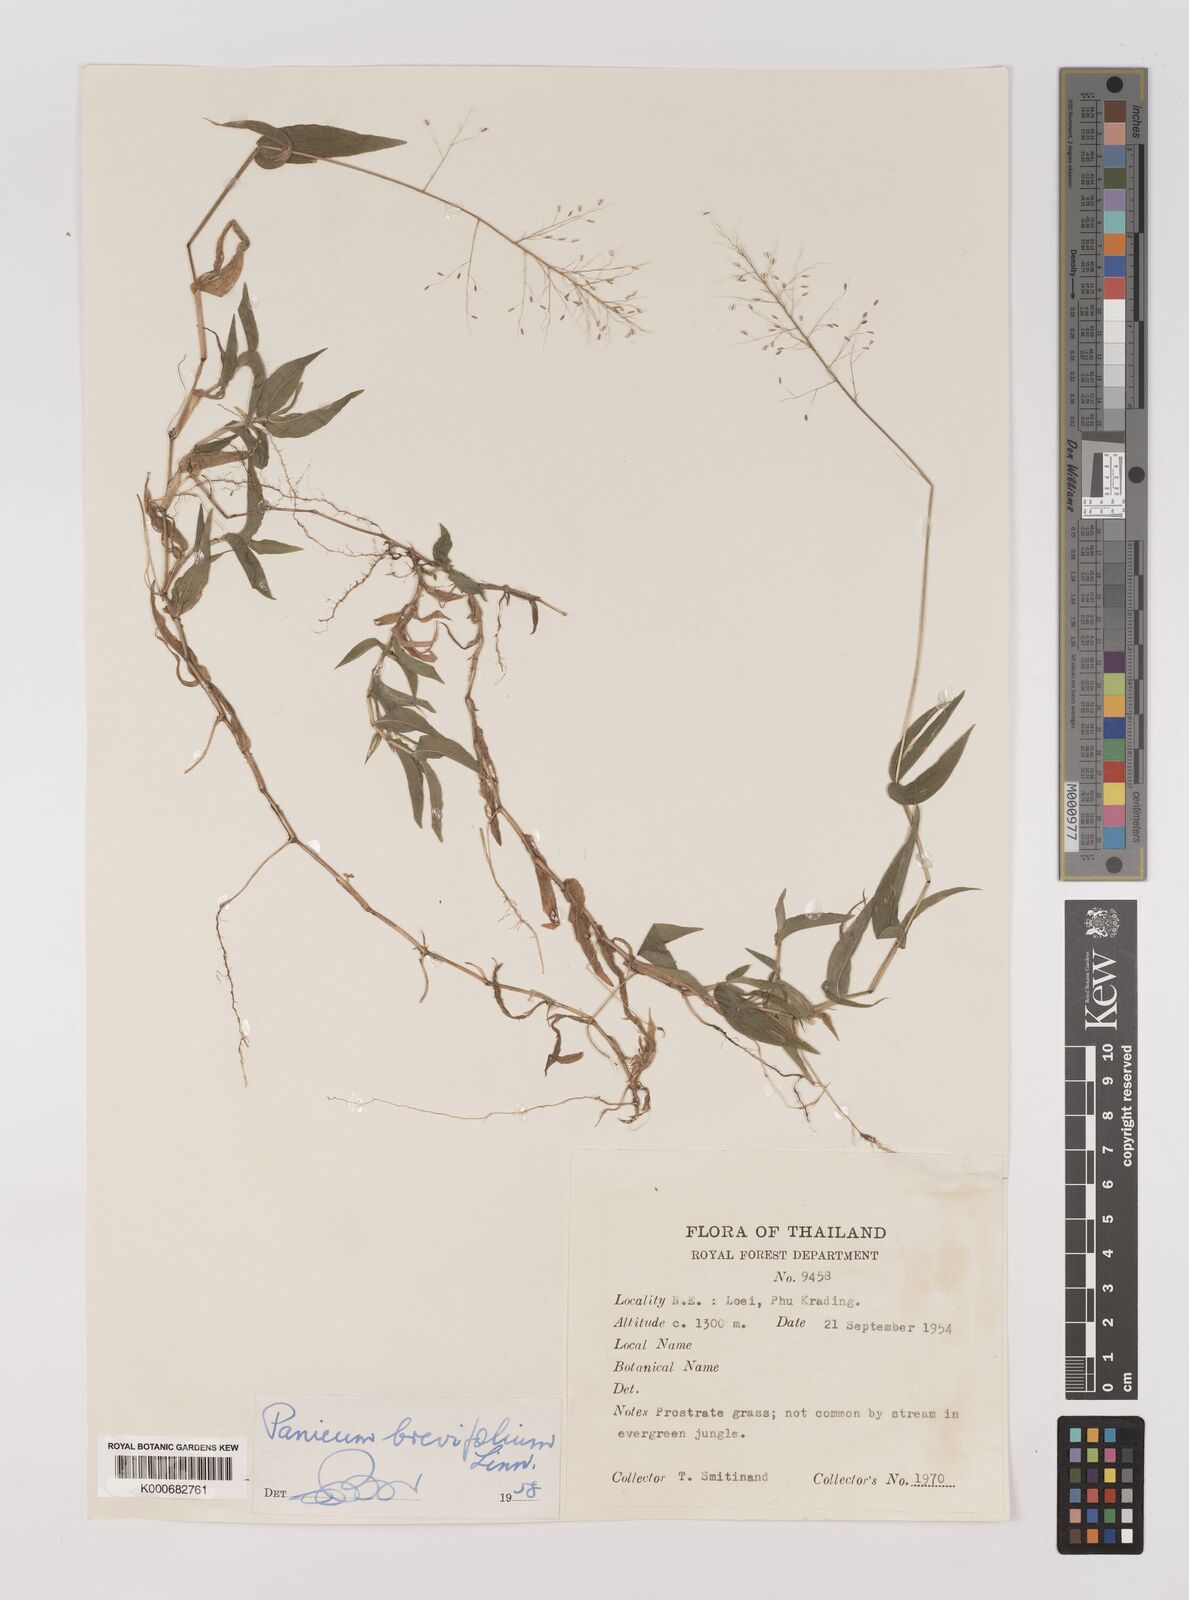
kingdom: Plantae
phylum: Tracheophyta
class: Liliopsida
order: Poales
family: Poaceae
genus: Panicum
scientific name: Panicum brevifolium
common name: Shortleaf panic grass
